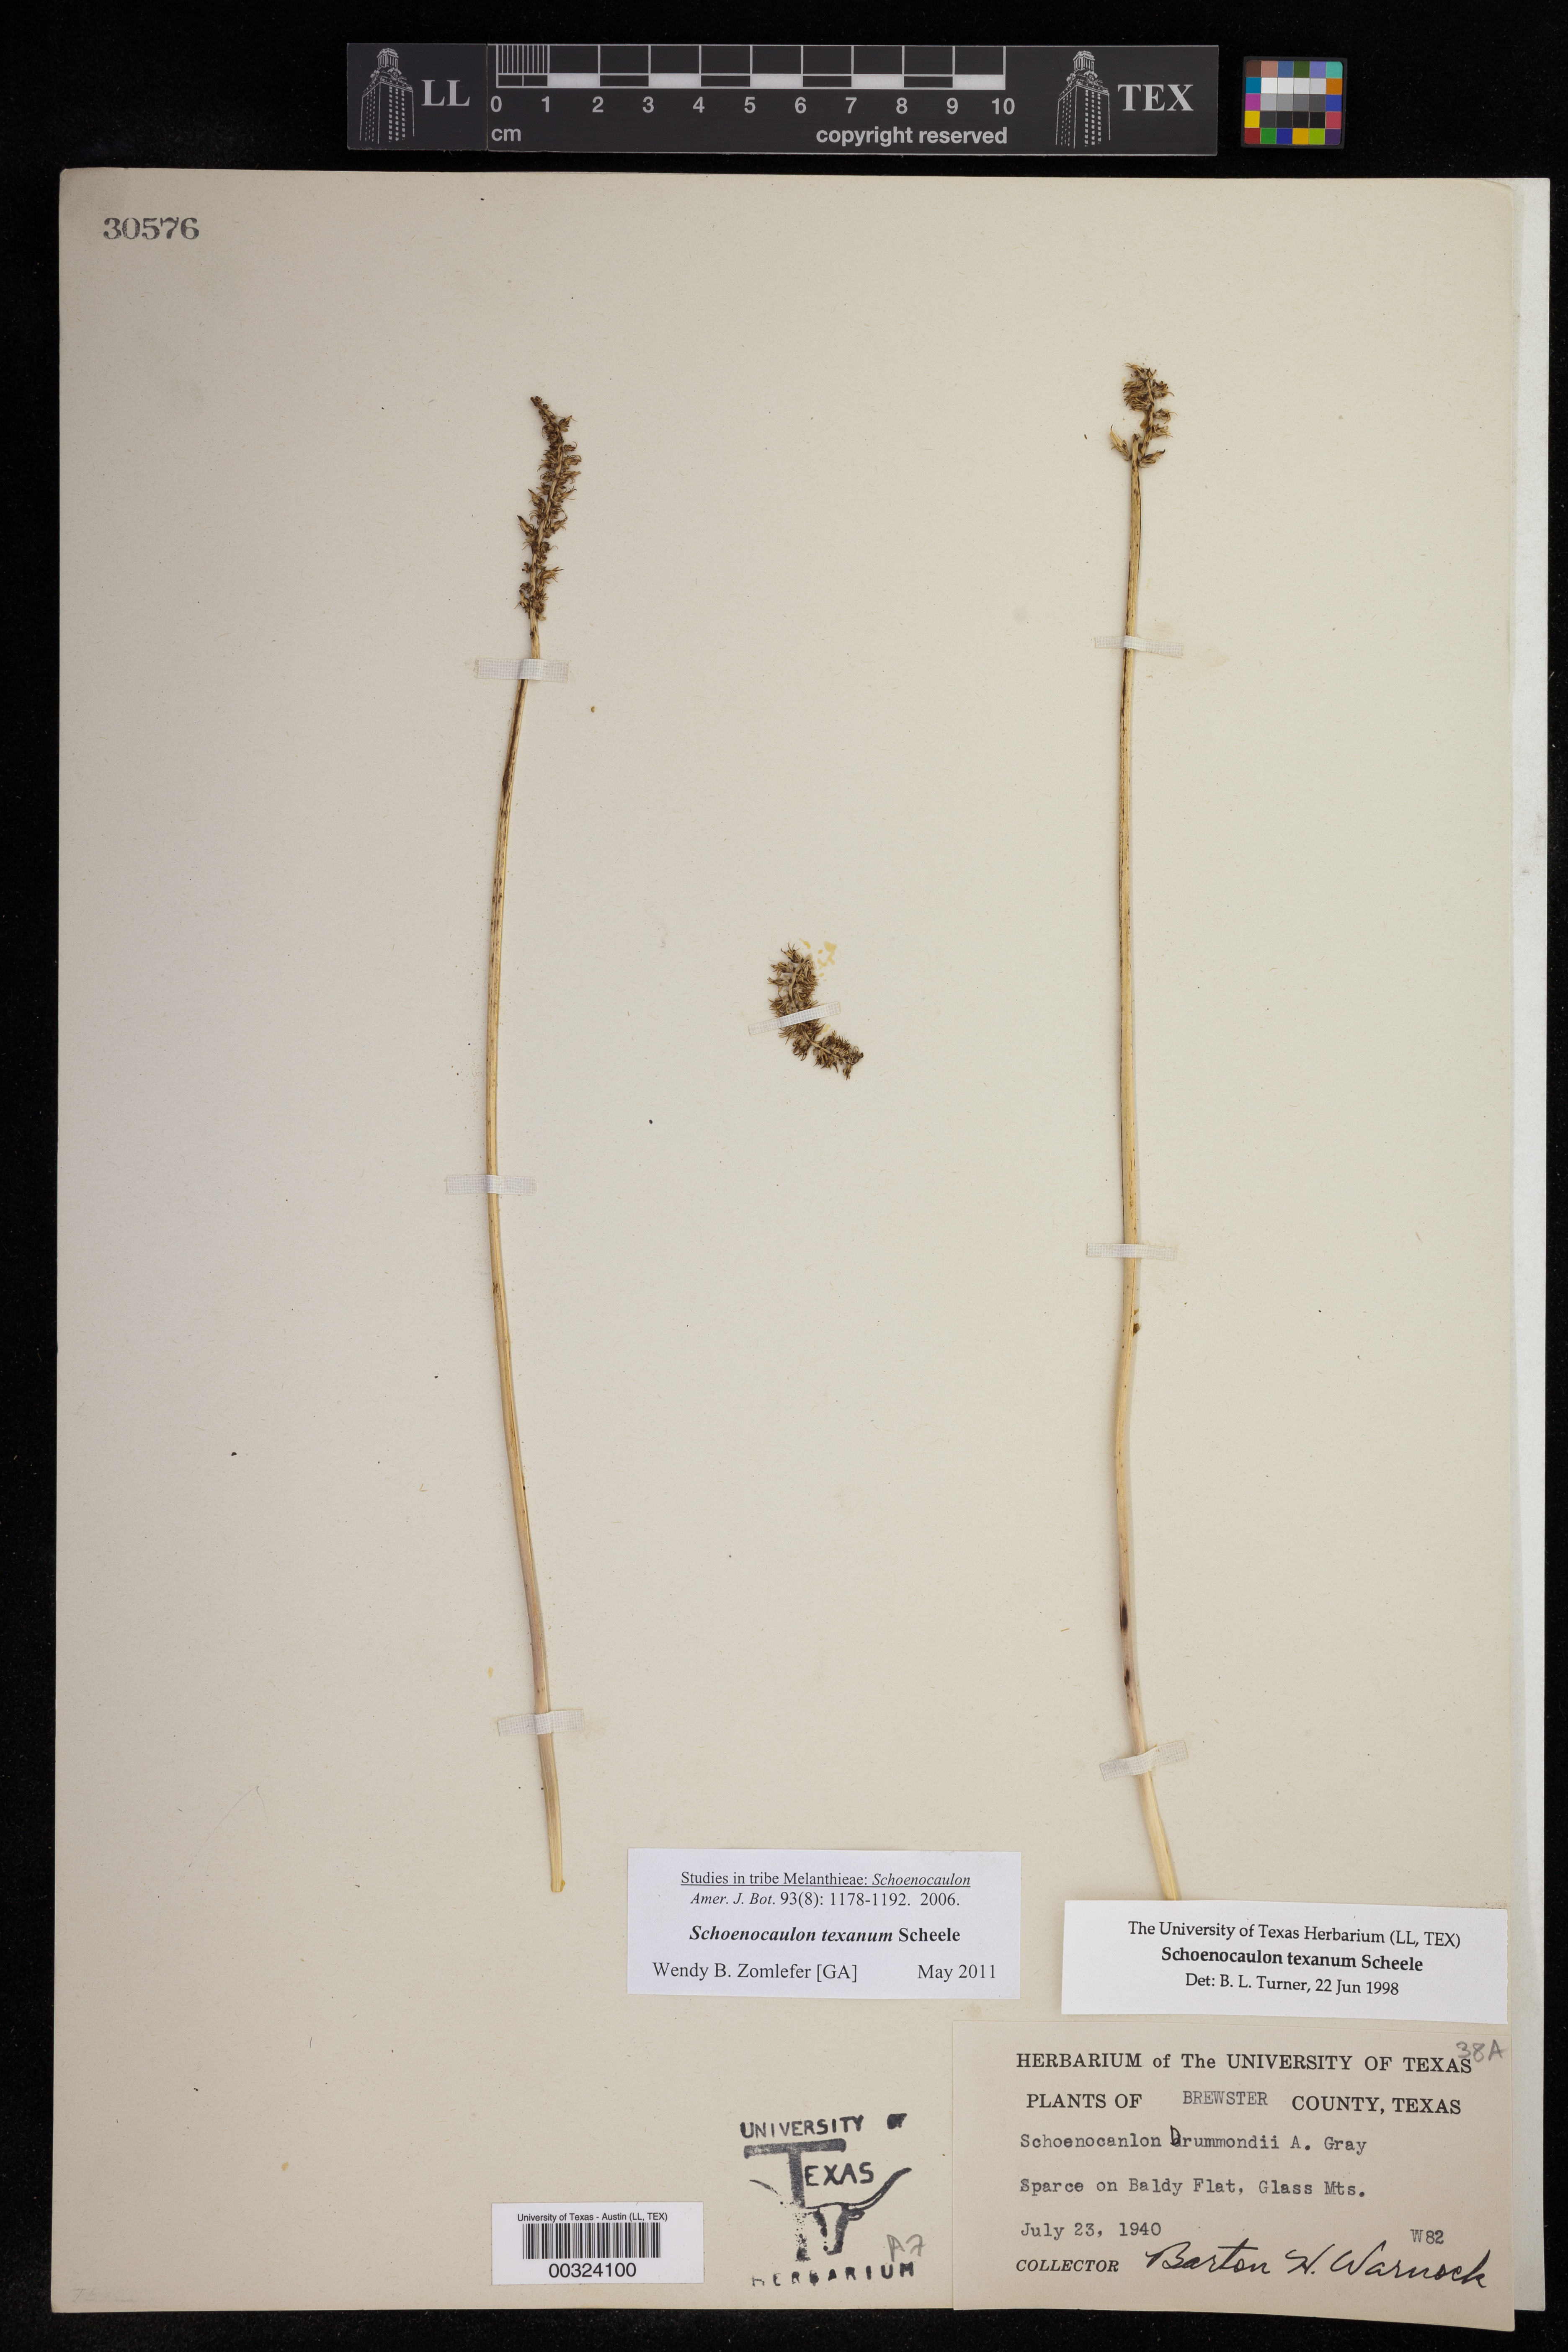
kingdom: Plantae
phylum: Tracheophyta
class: Liliopsida
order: Liliales
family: Melanthiaceae
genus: Schoenocaulon
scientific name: Schoenocaulon texanum
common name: Texas feather-shank
